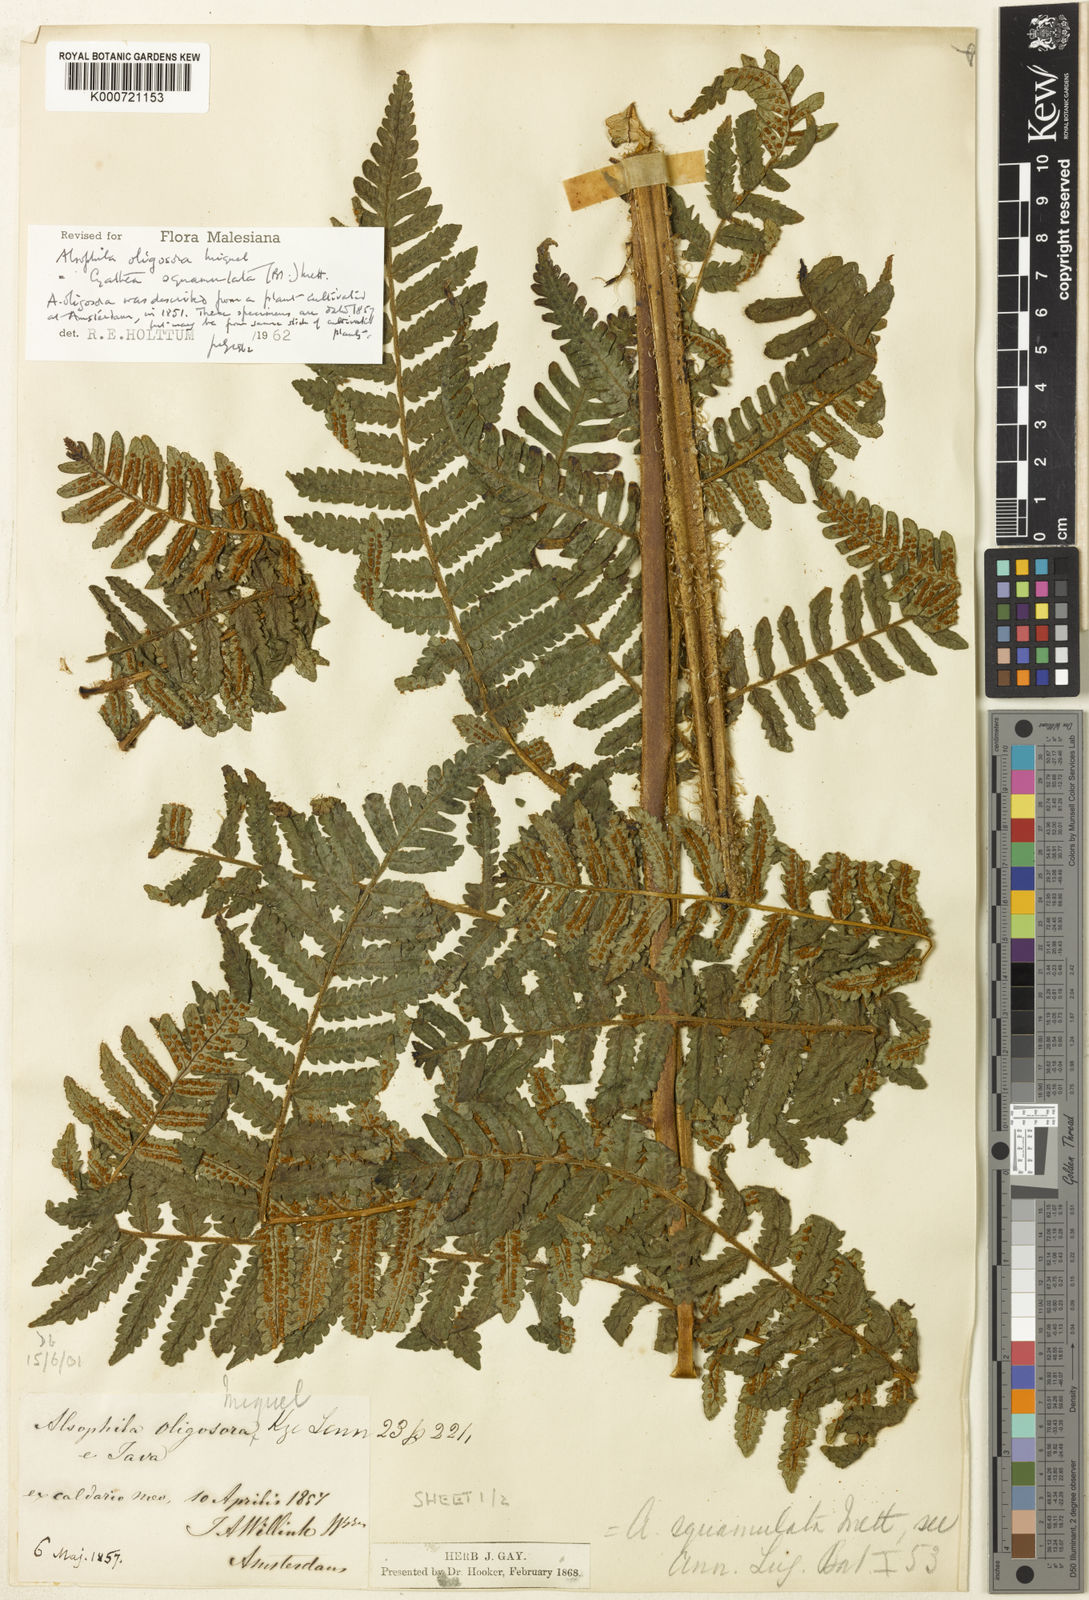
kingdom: Plantae
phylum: Tracheophyta
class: Polypodiopsida
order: Cyatheales
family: Cyatheaceae
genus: Cyathea
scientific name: Cyathea
